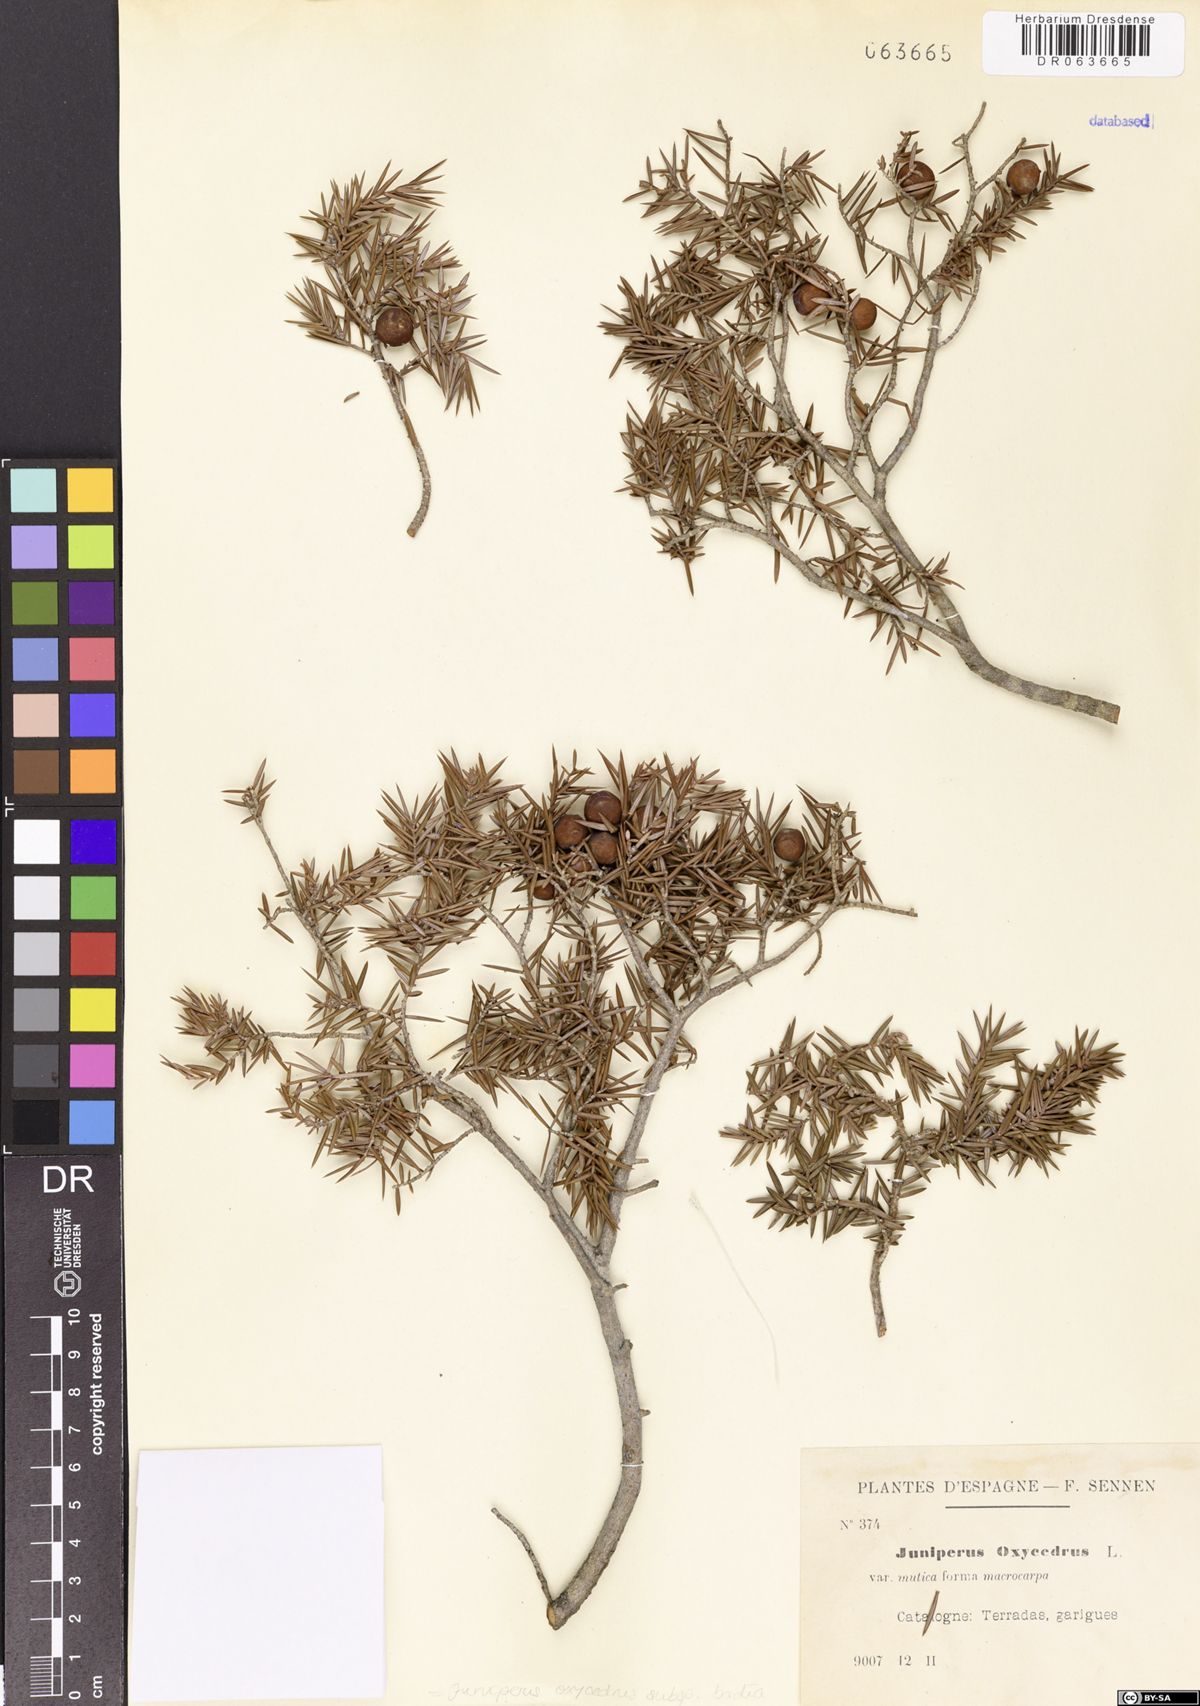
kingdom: Plantae
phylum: Tracheophyta
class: Pinopsida
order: Pinales
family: Cupressaceae
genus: Juniperus
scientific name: Juniperus oxycedrus
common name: Prickly juniper
